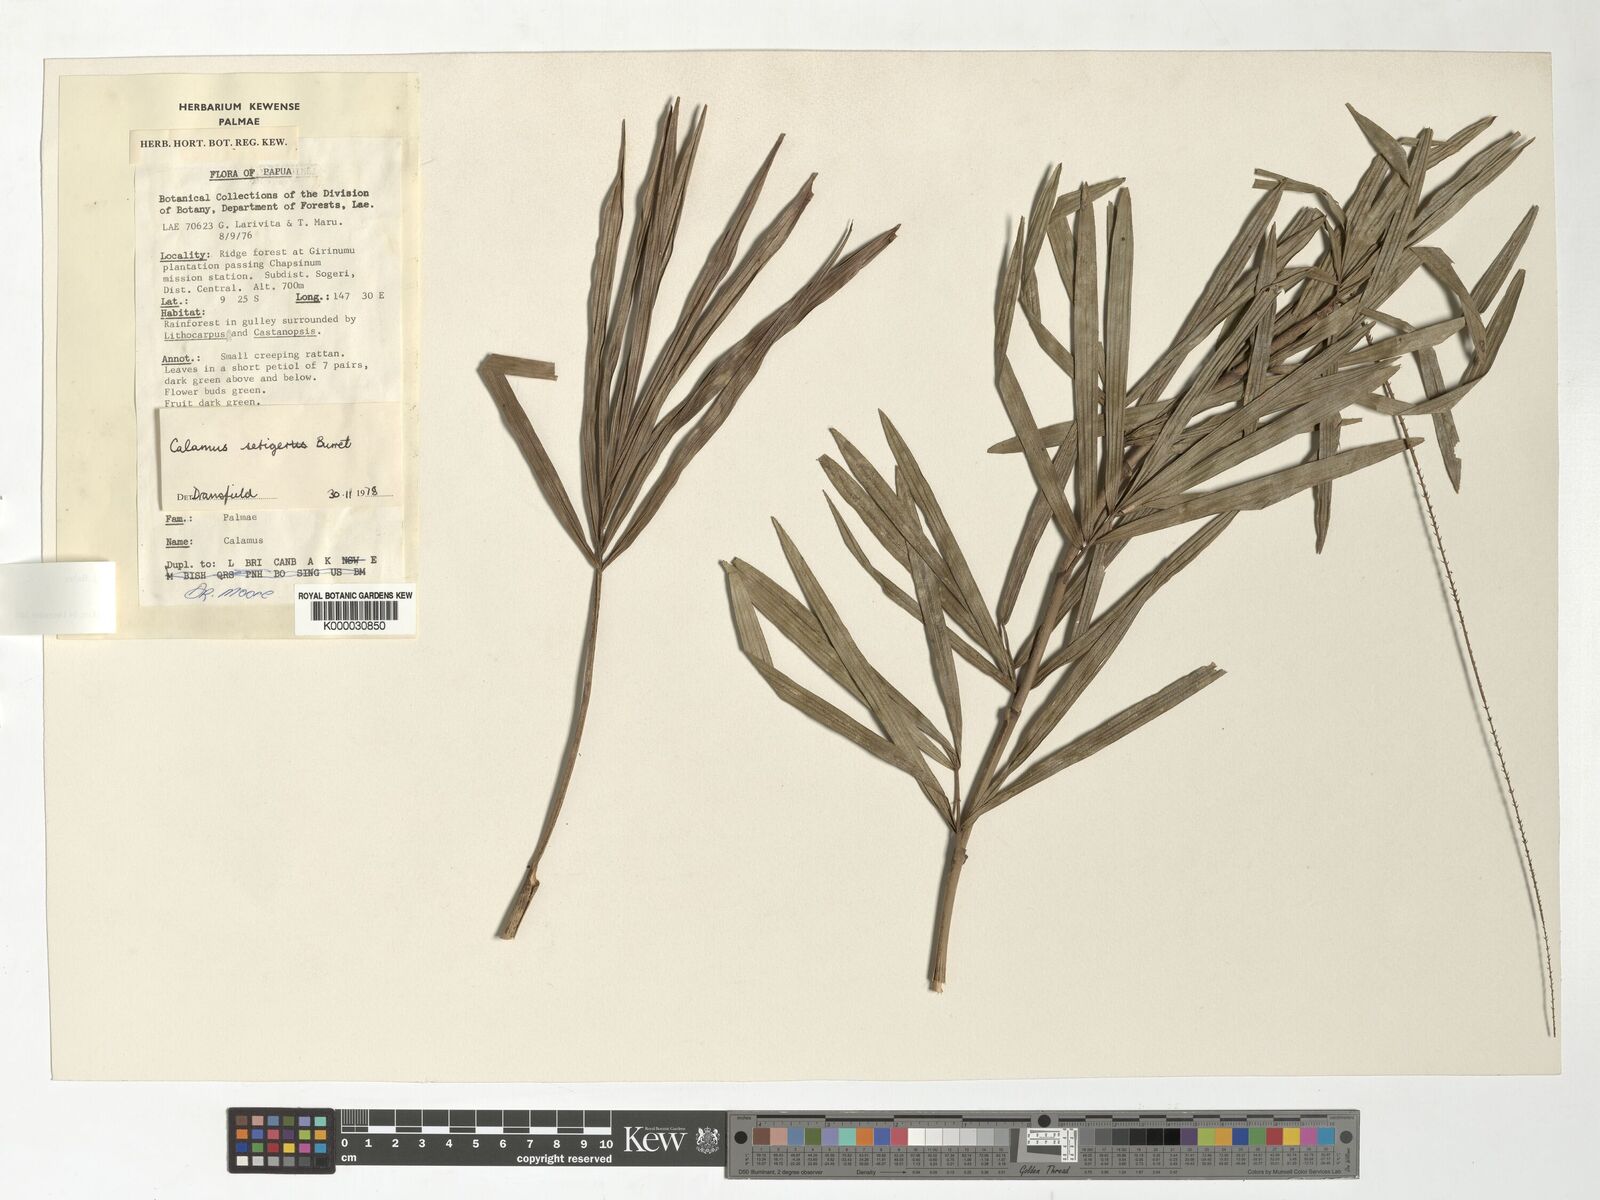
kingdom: Plantae
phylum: Tracheophyta
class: Liliopsida
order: Arecales
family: Arecaceae
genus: Calamus
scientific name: Calamus essigii
